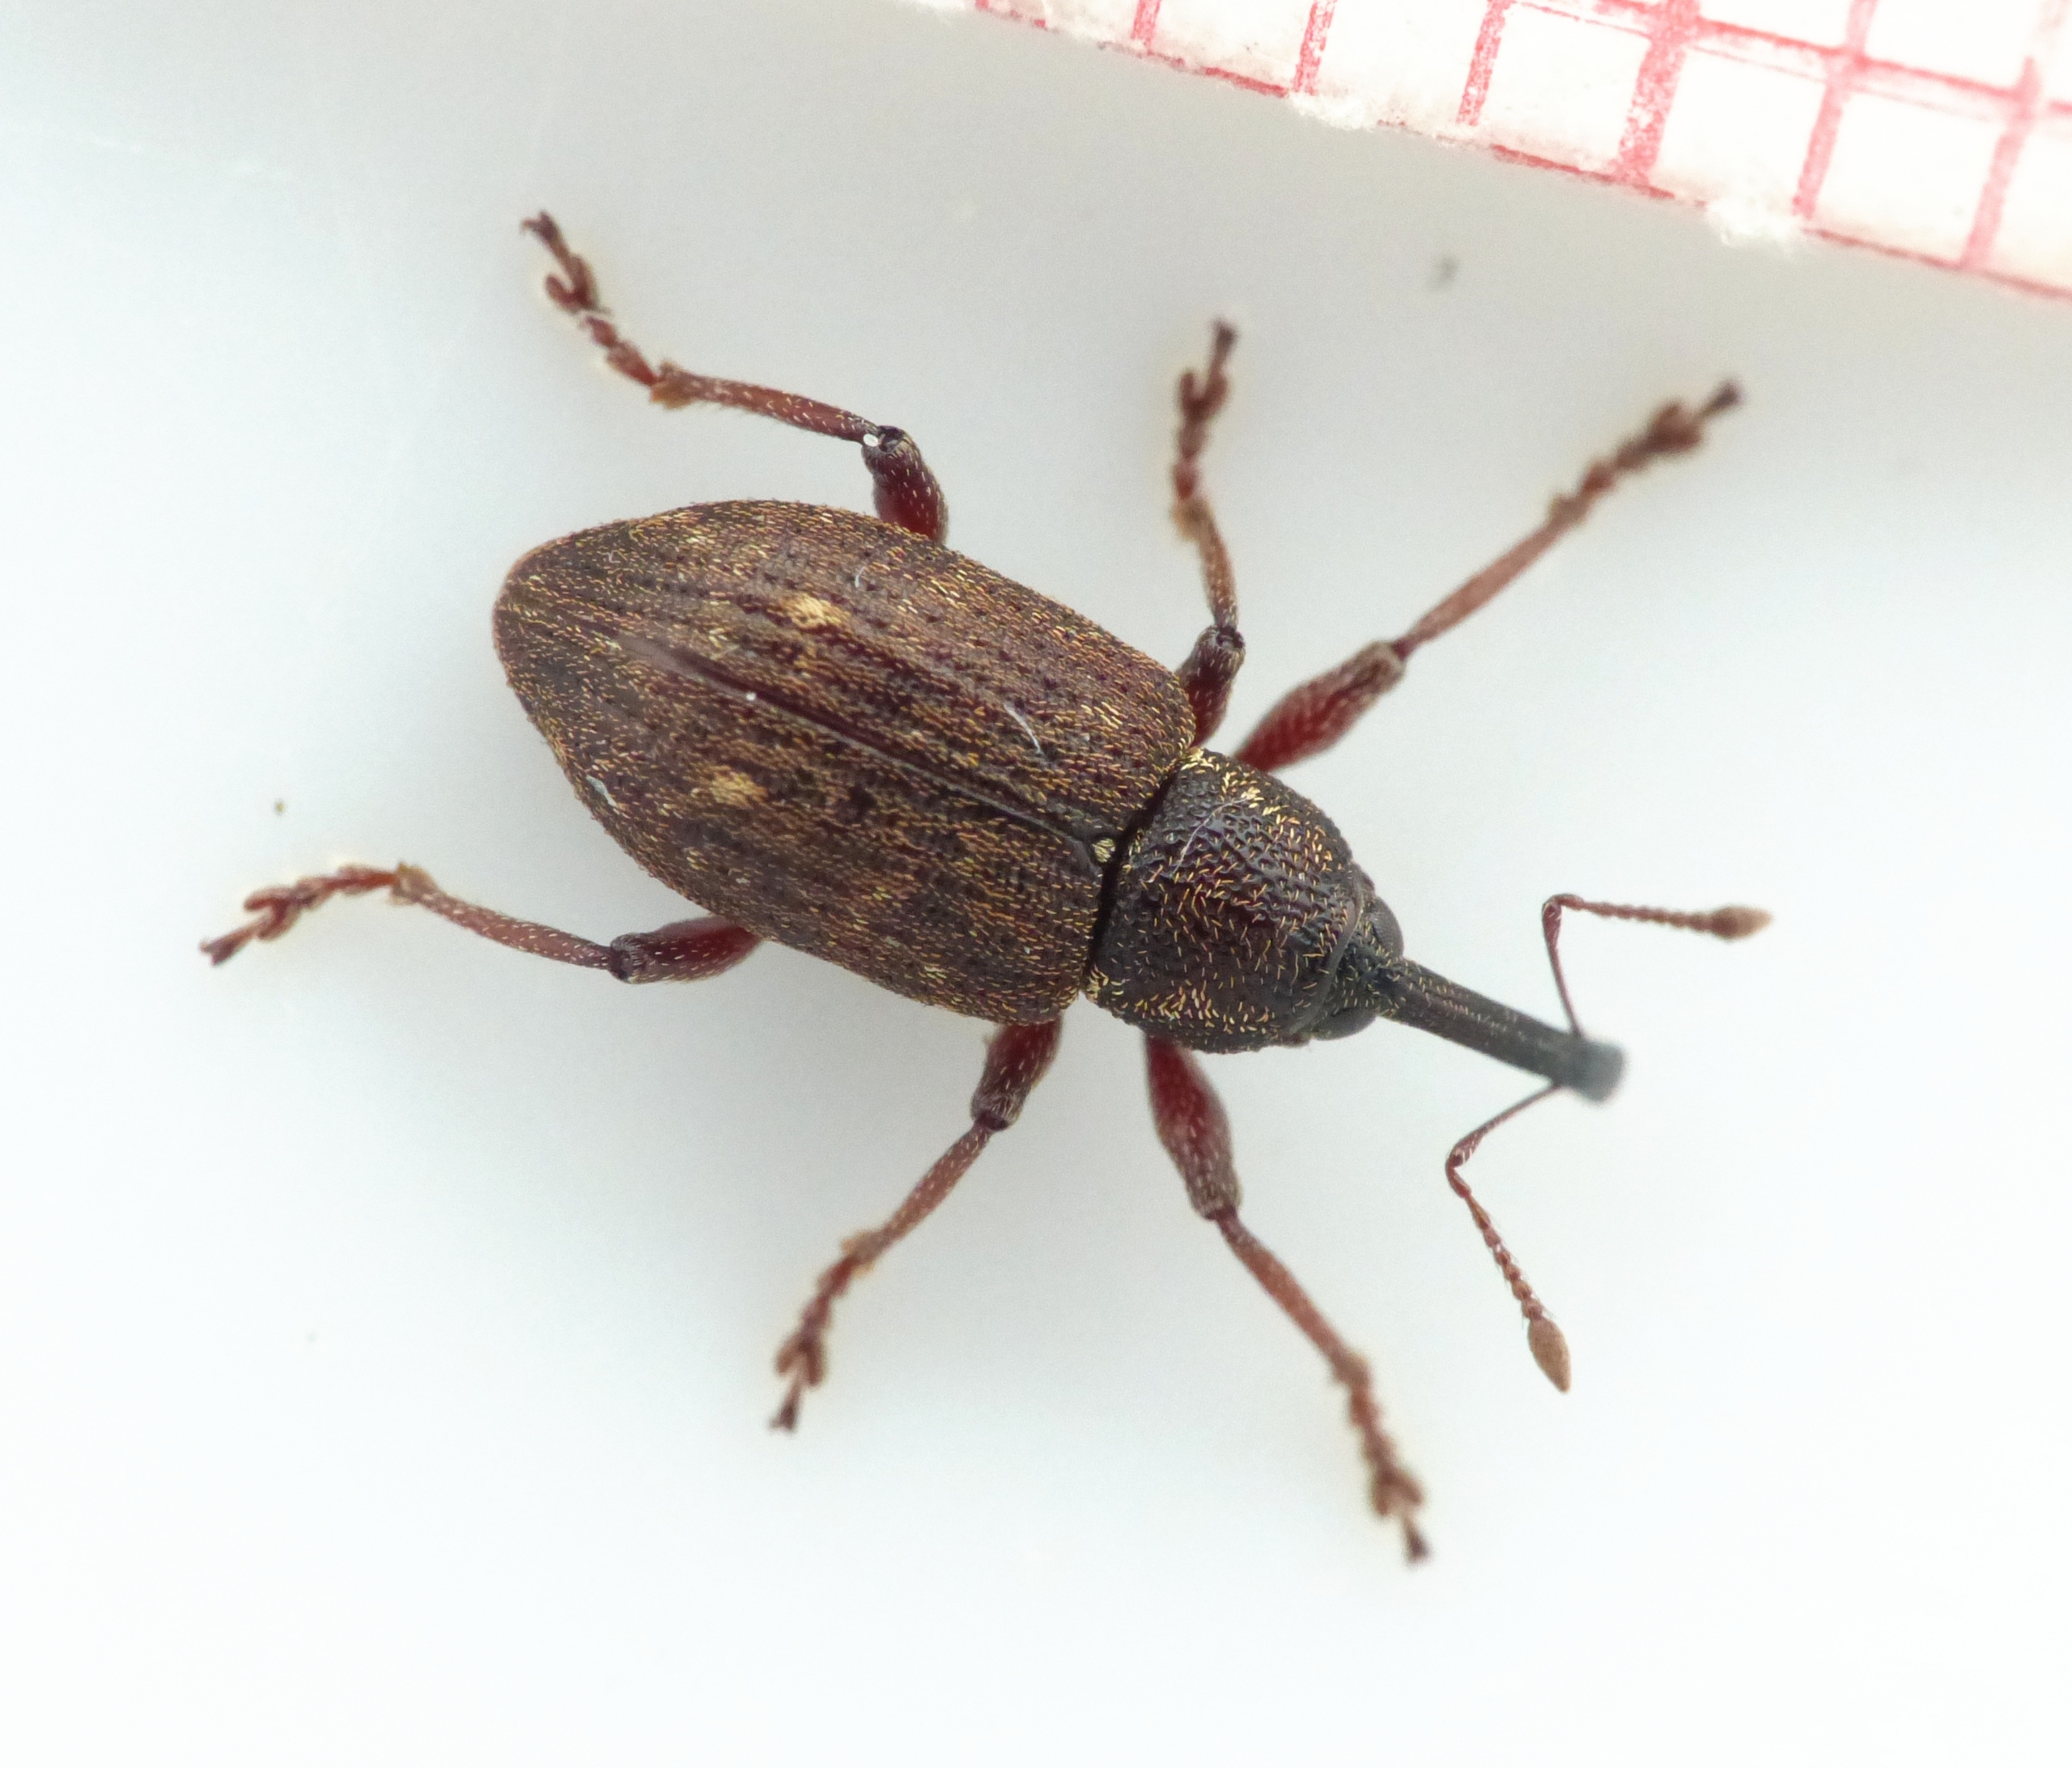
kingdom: Animalia
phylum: Arthropoda
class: Insecta
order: Coleoptera
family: Brachyceridae
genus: Notaris
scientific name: Notaris scirpi
